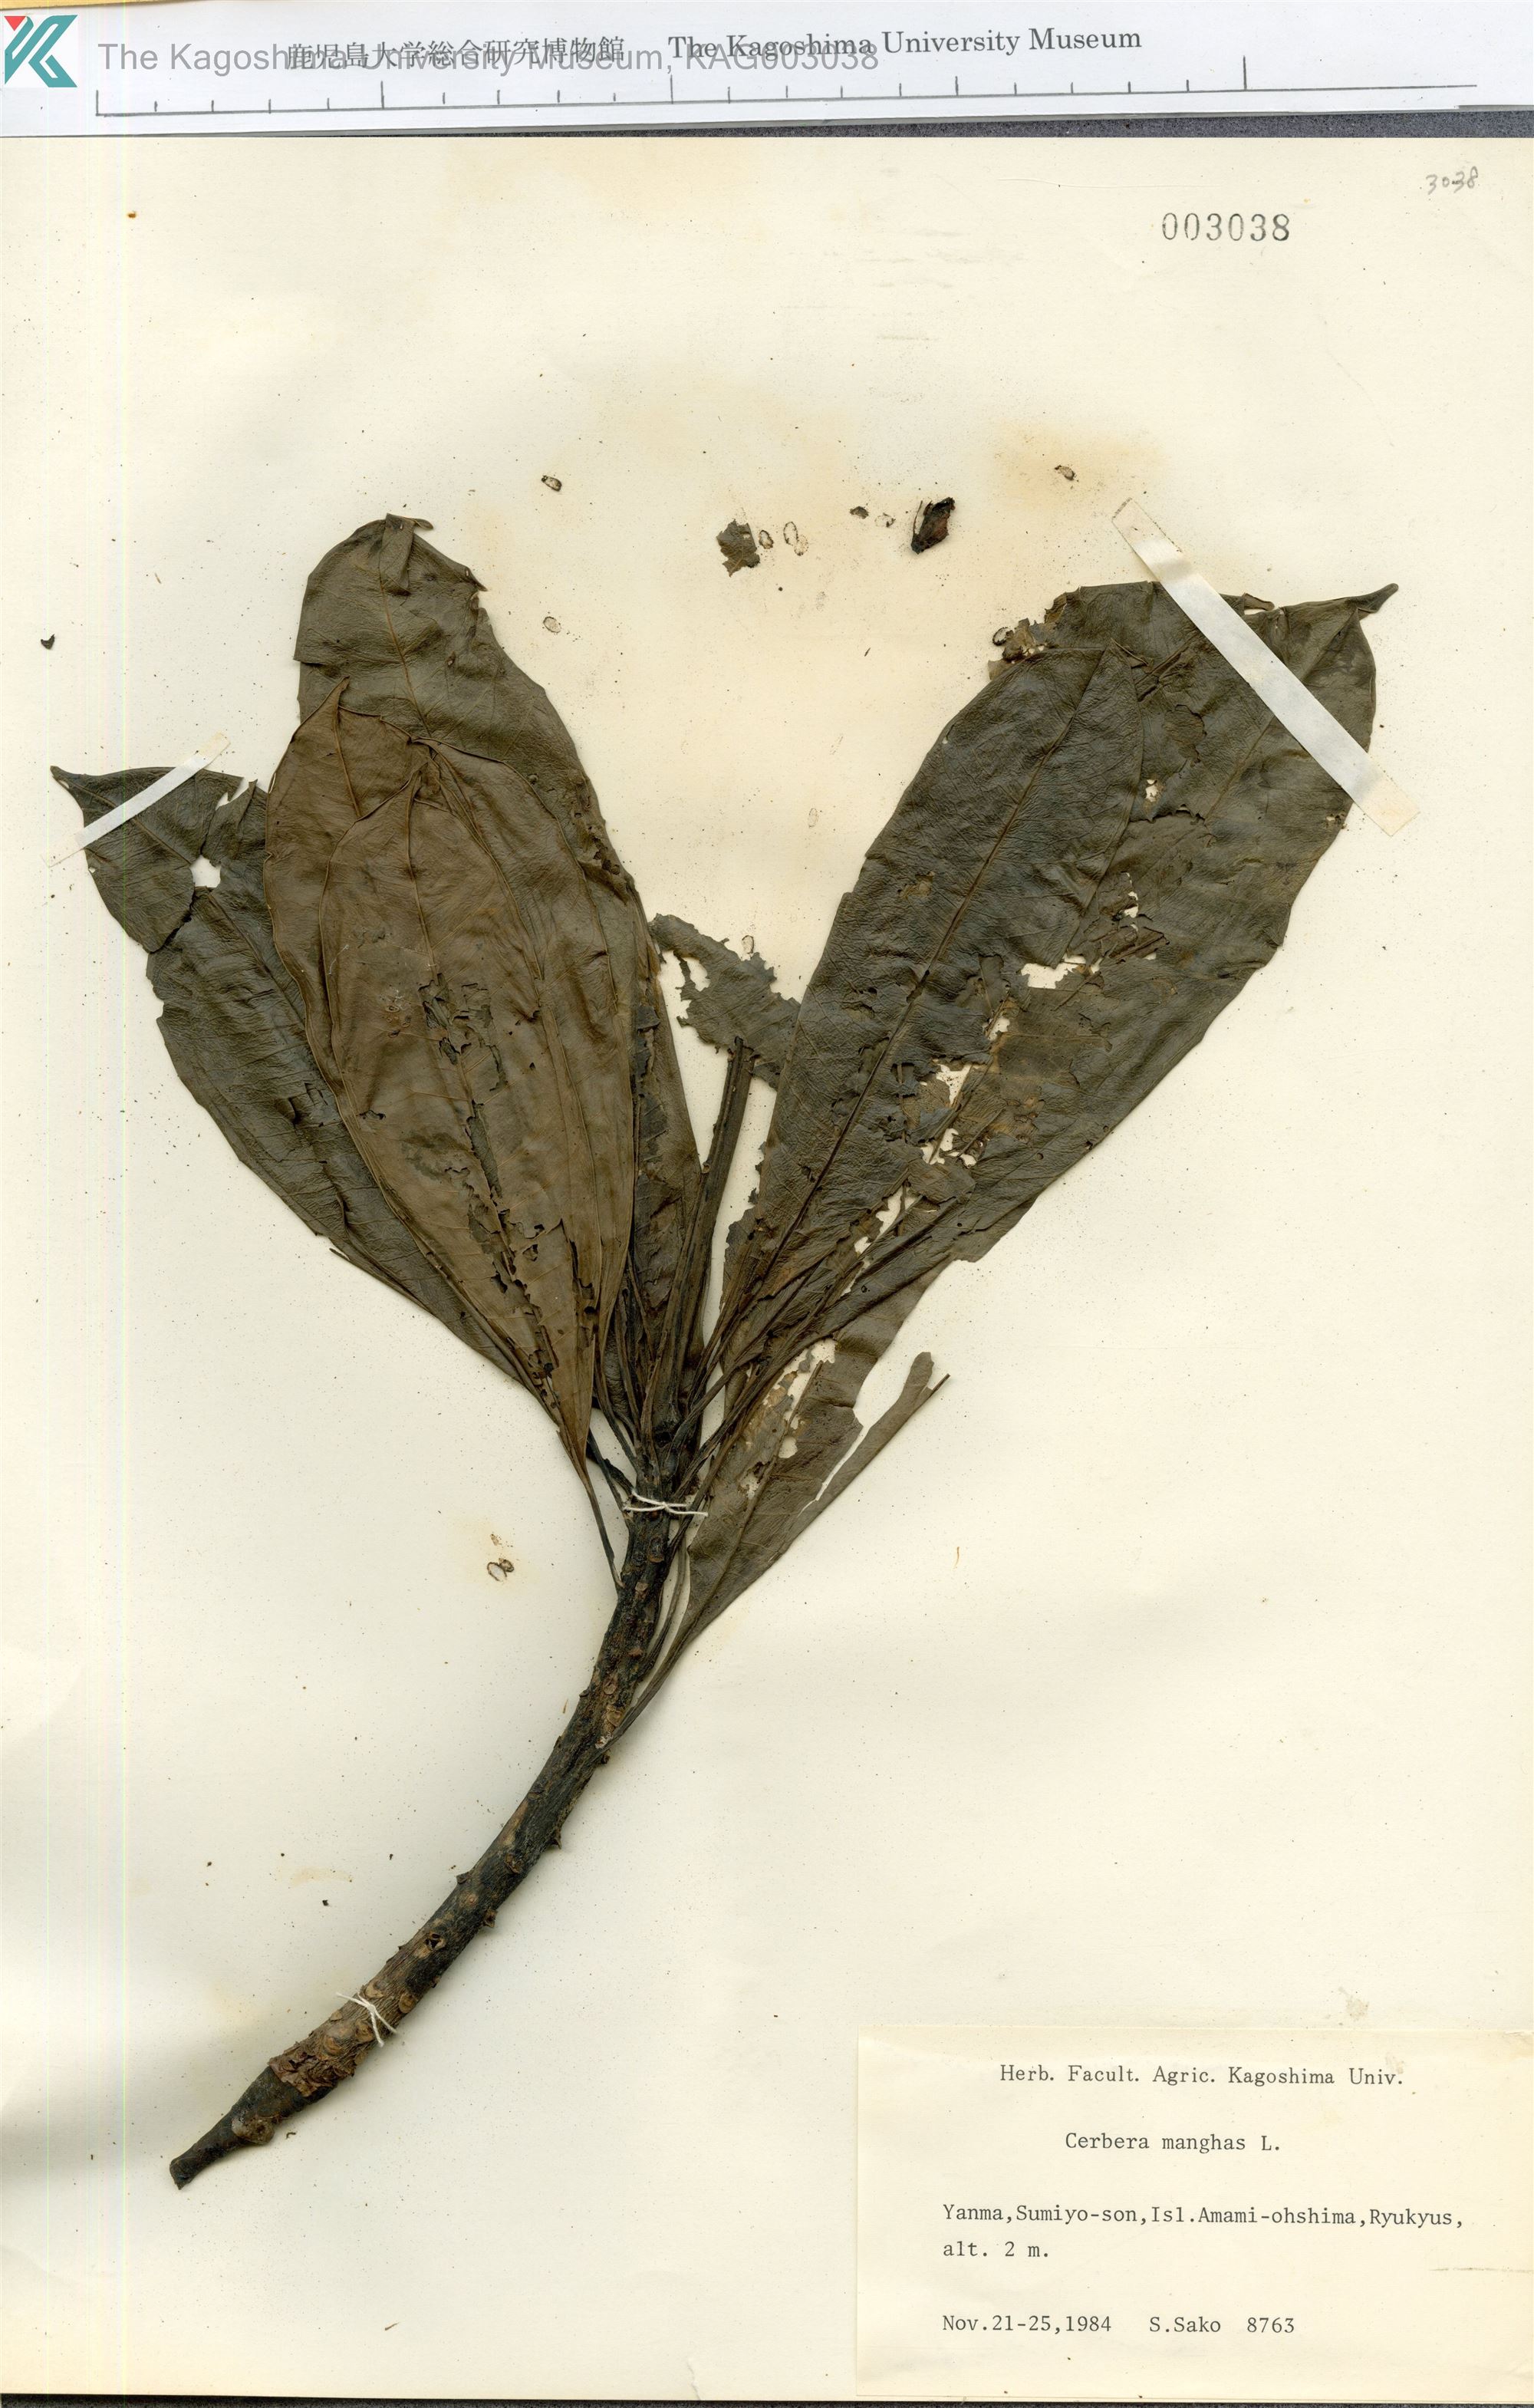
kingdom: Plantae
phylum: Tracheophyta
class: Magnoliopsida
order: Gentianales
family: Apocynaceae
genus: Cerbera
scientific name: Cerbera manghas
